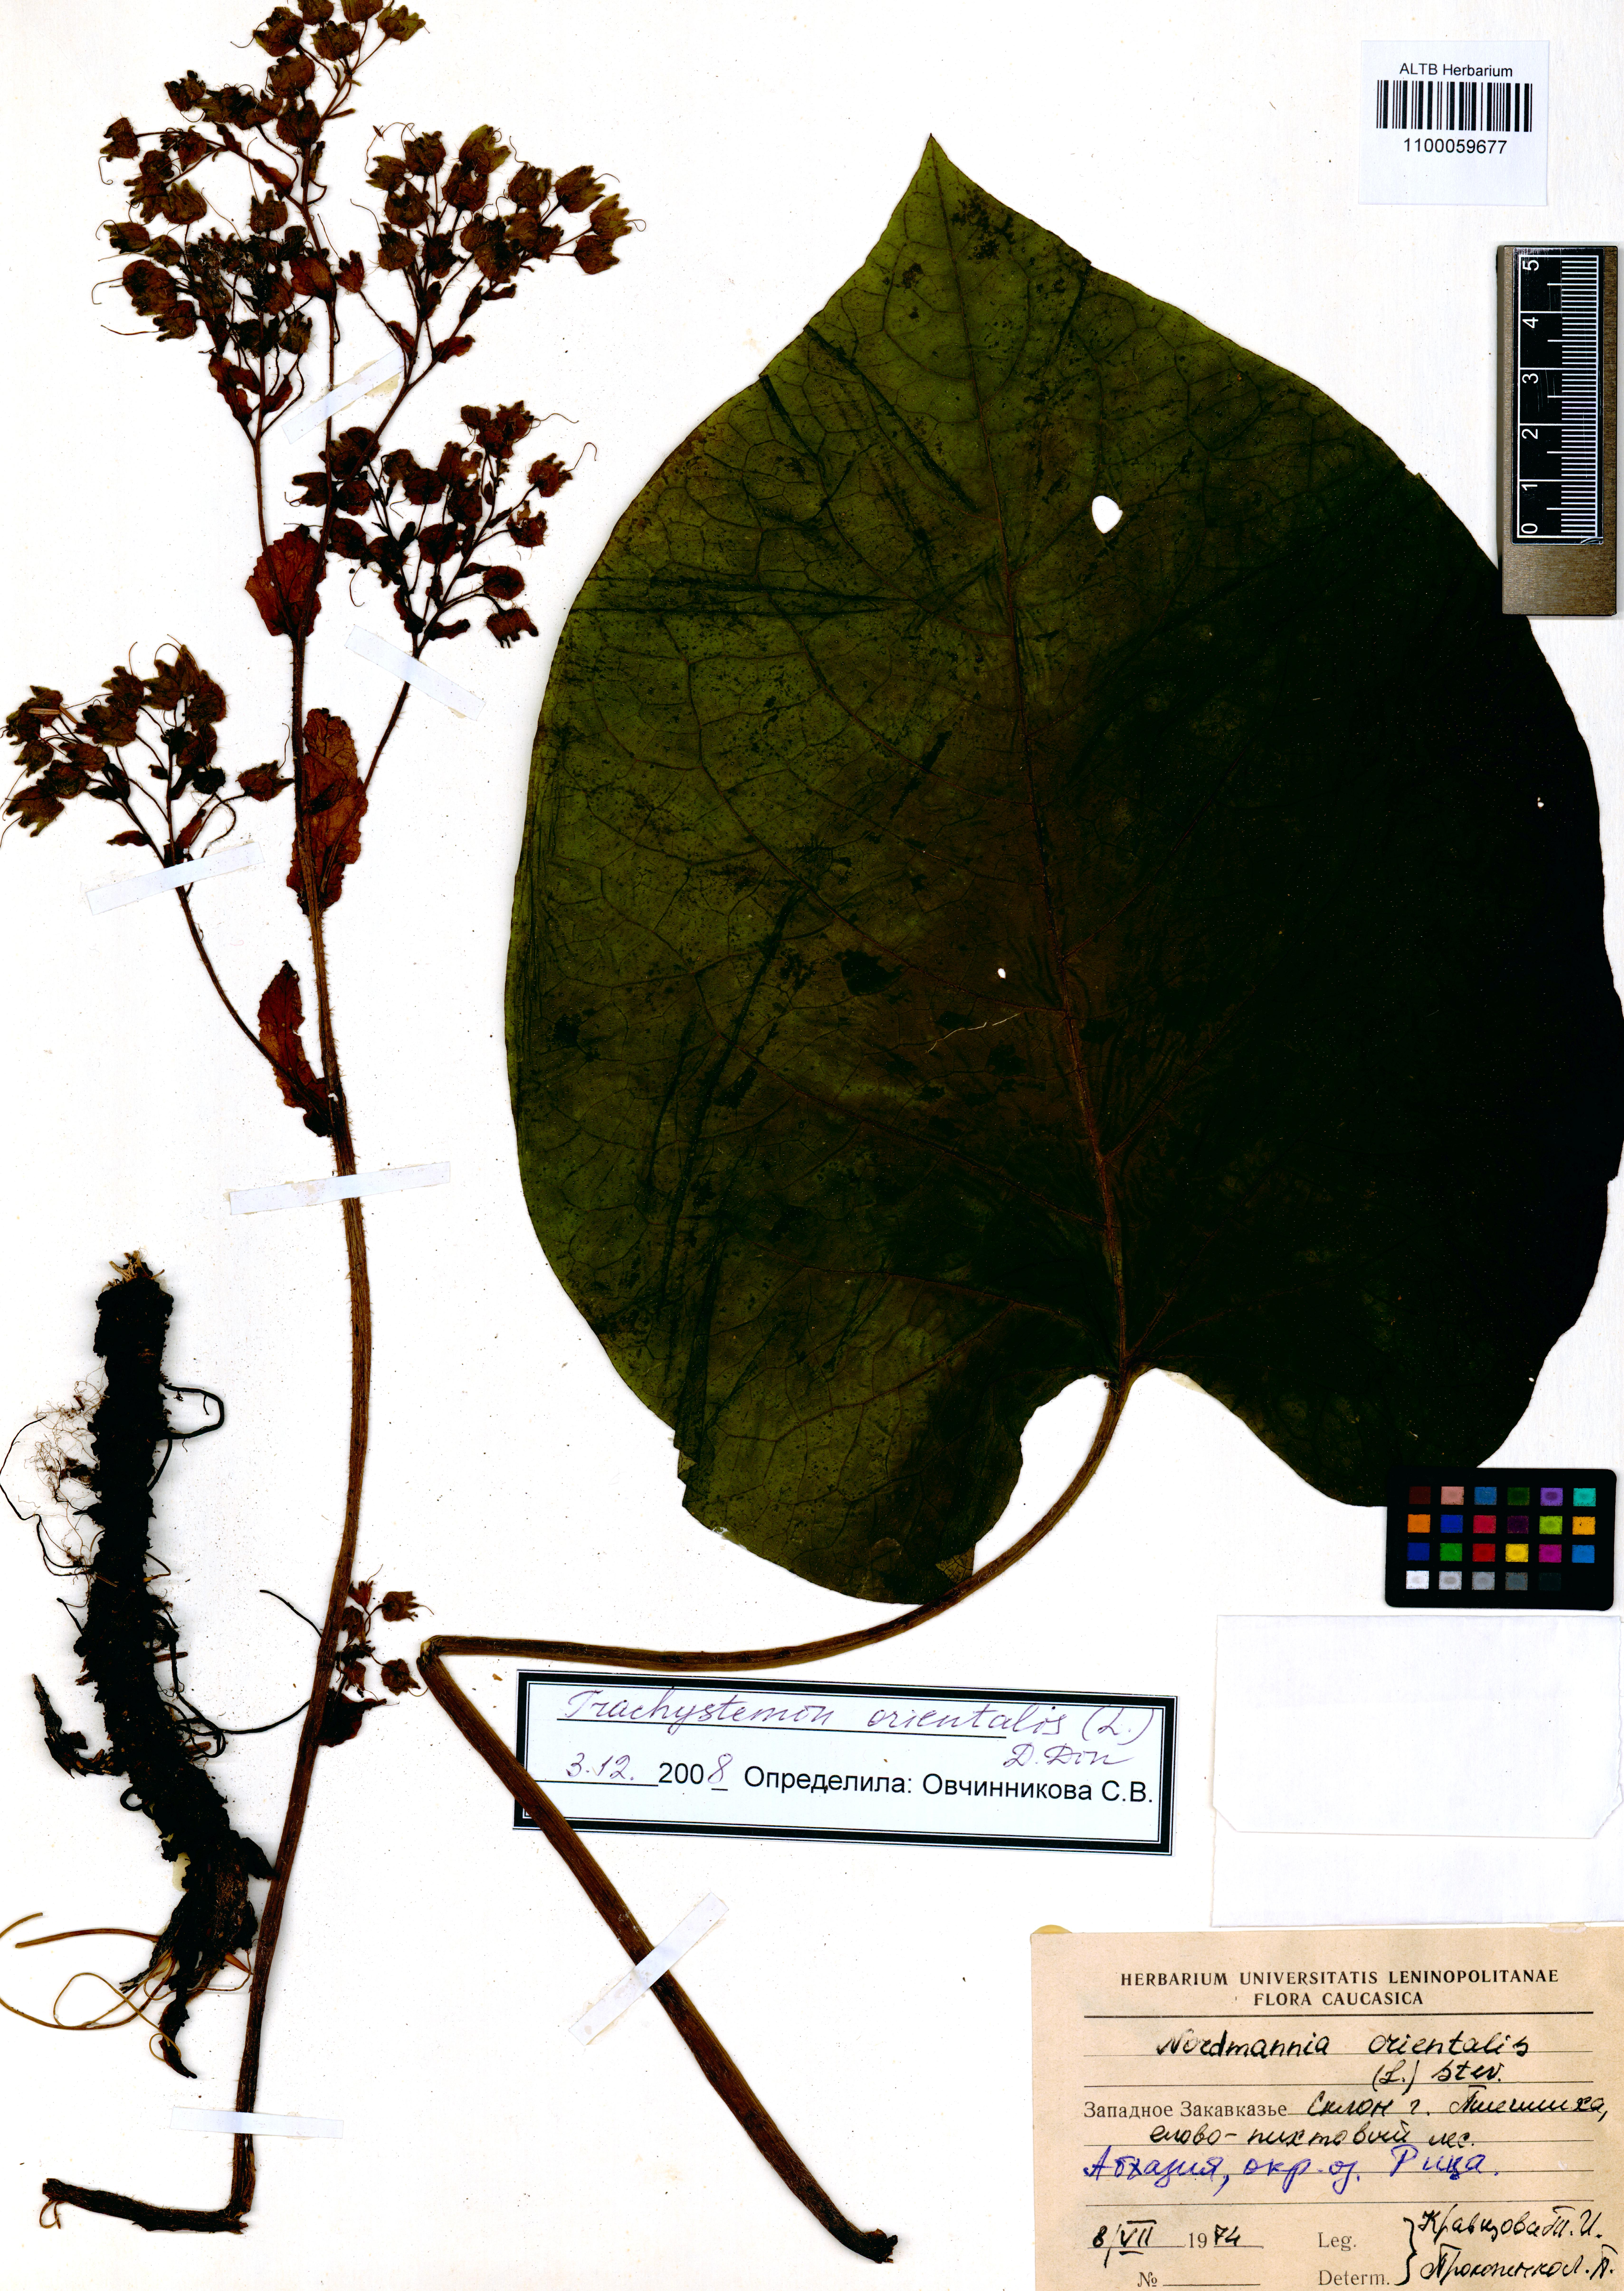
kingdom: Plantae
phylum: Tracheophyta
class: Magnoliopsida
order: Boraginales
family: Boraginaceae
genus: Trachystemon
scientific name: Trachystemon orientale
